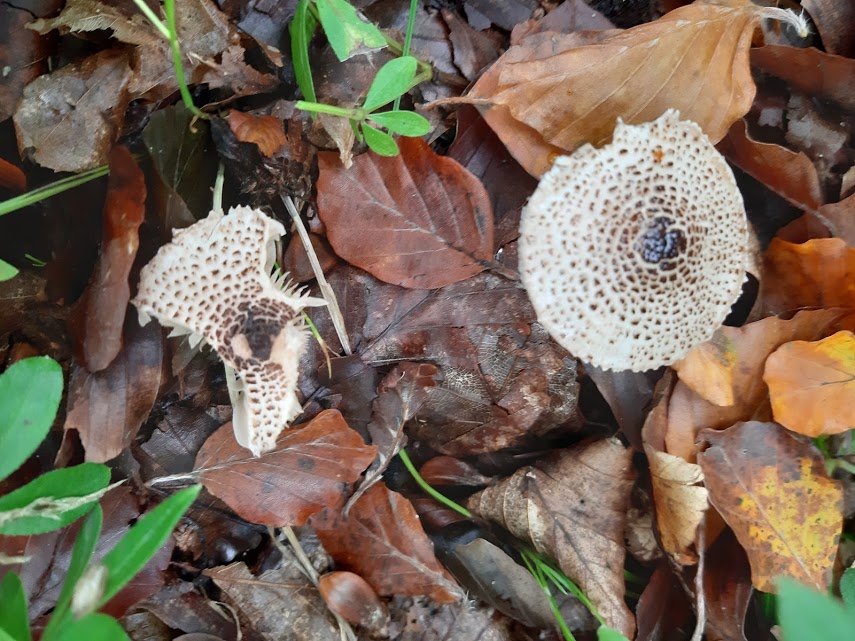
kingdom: Fungi
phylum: Basidiomycota
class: Agaricomycetes
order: Agaricales
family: Agaricaceae
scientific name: Agaricaceae
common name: champignonfamilien
